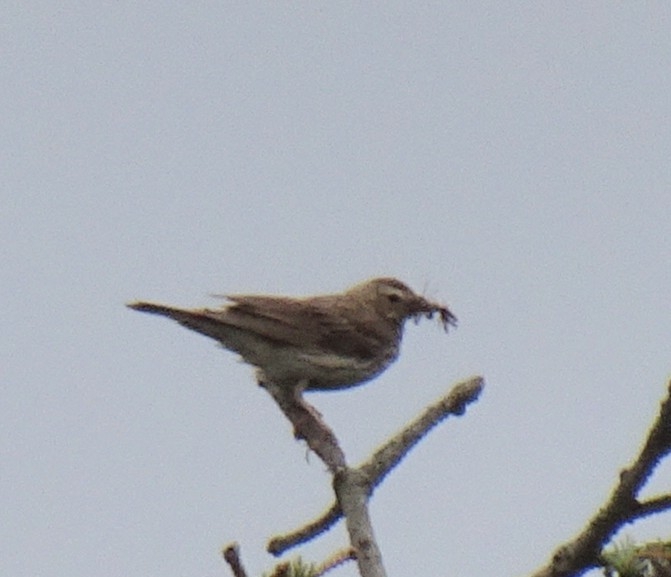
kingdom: Animalia
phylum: Chordata
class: Aves
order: Passeriformes
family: Motacillidae
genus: Anthus
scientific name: Anthus trivialis
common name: Skovpiber
